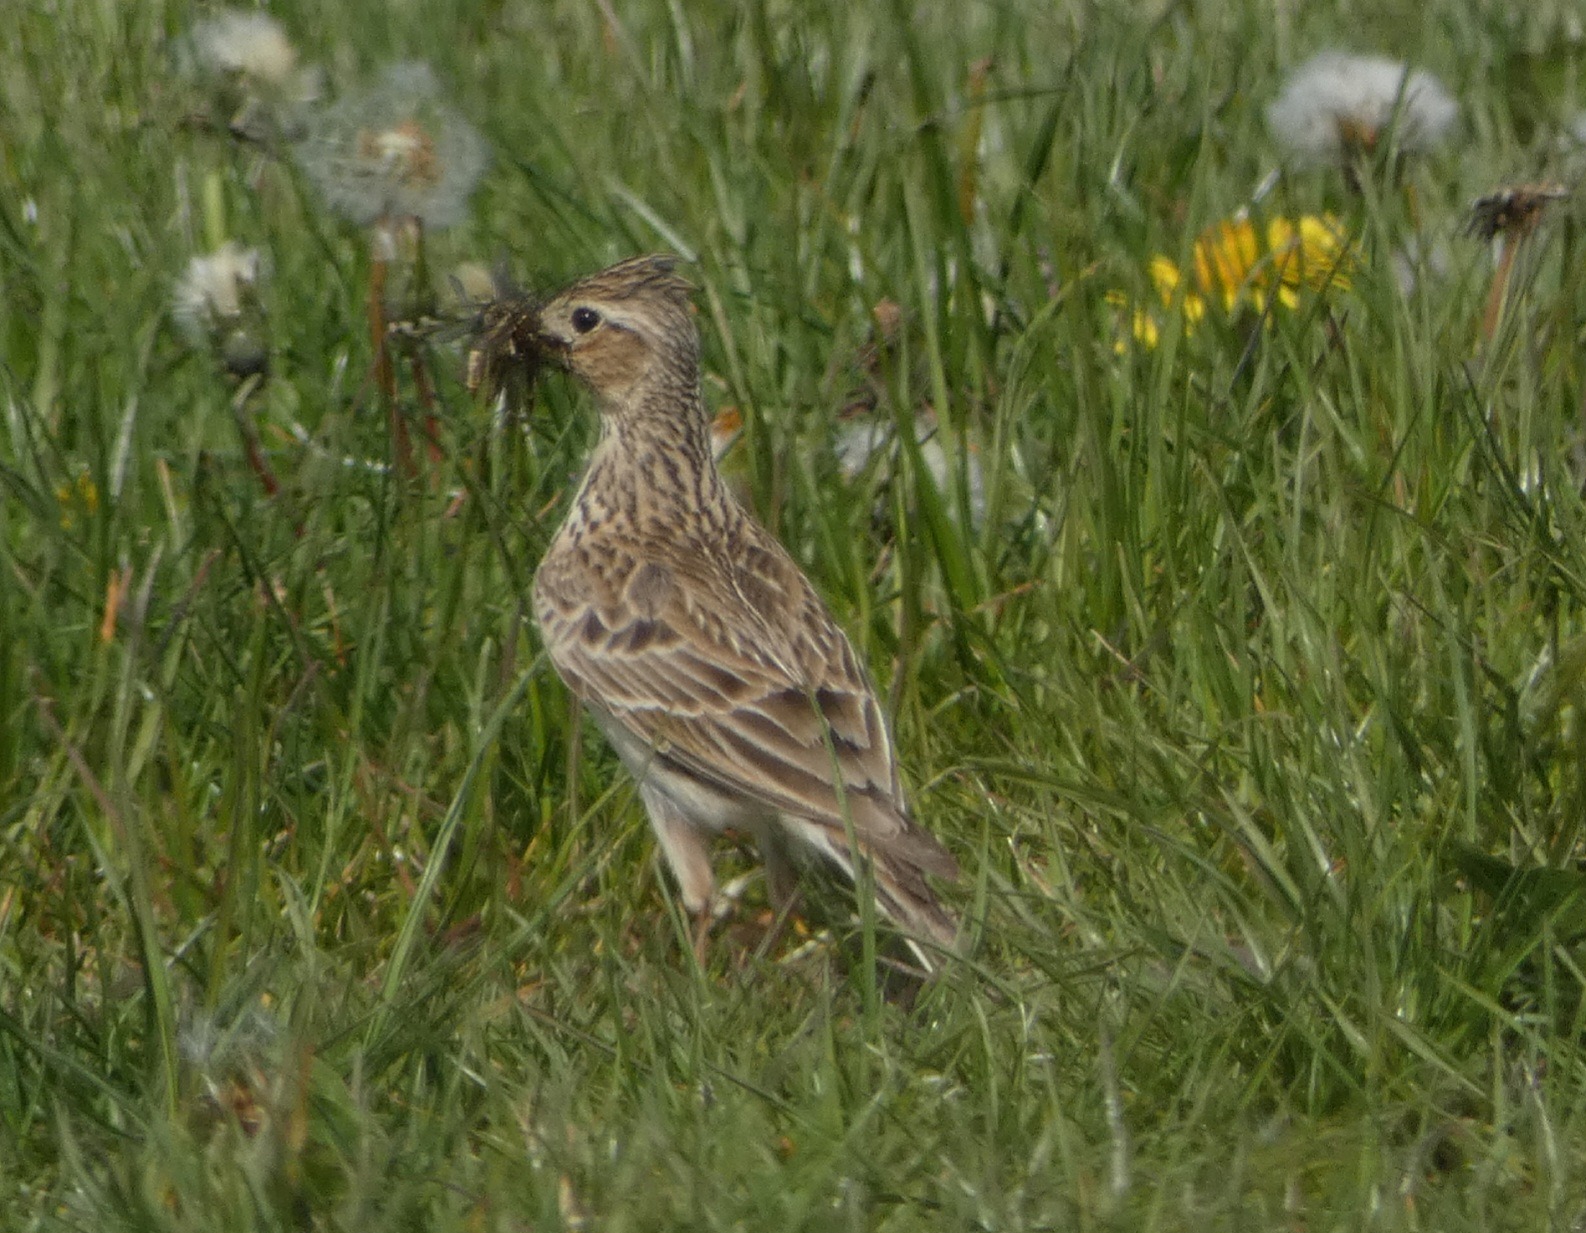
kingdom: Animalia
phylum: Chordata
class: Aves
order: Passeriformes
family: Alaudidae
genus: Alauda
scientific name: Alauda arvensis
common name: Sanglærke
